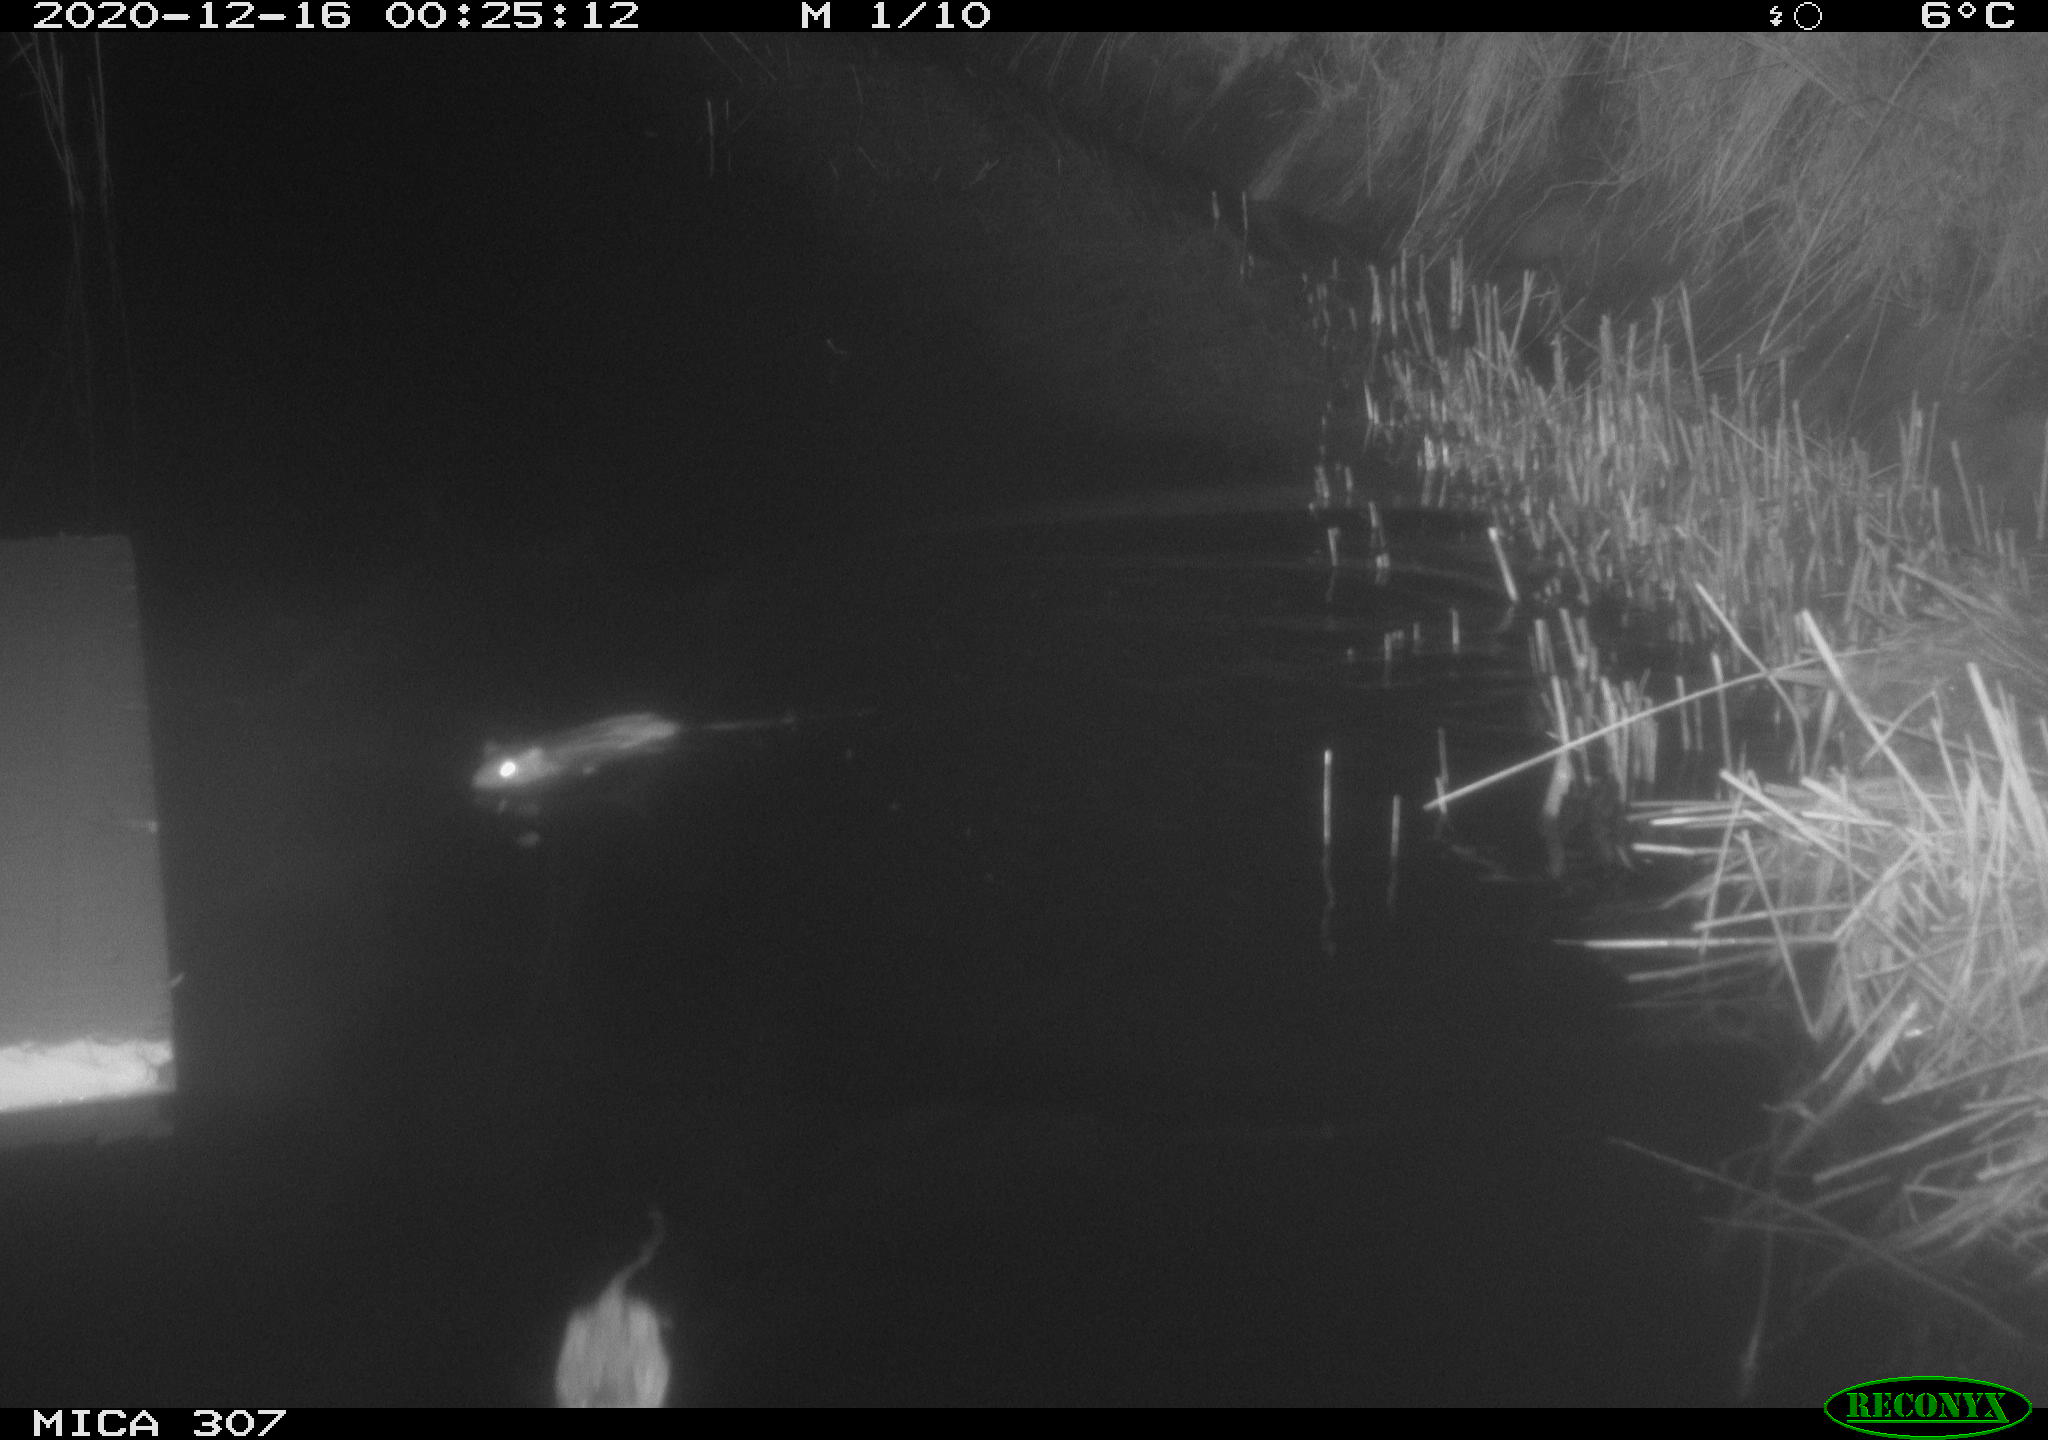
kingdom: Animalia
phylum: Chordata
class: Mammalia
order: Rodentia
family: Muridae
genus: Rattus
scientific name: Rattus norvegicus
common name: Brown rat
